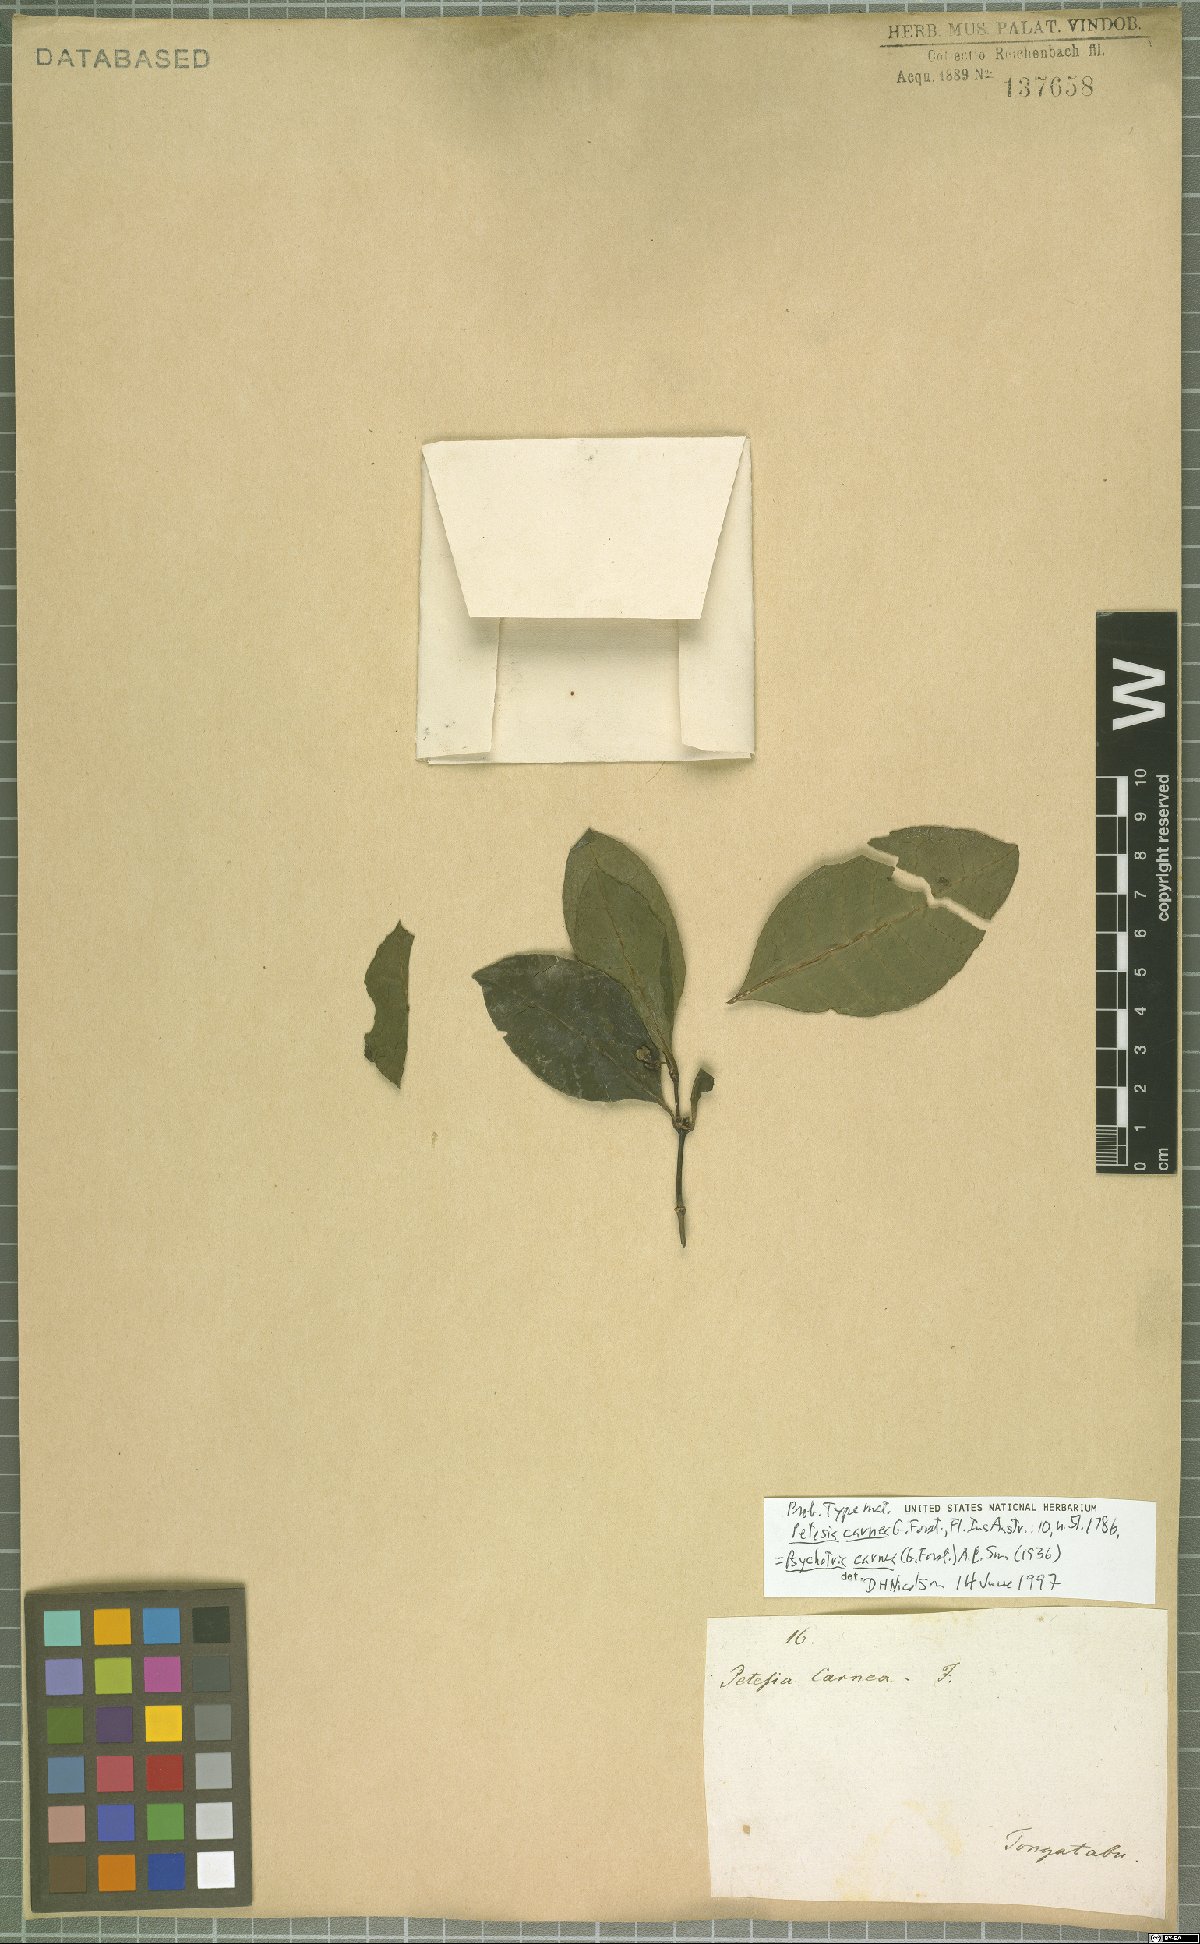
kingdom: Plantae
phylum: Tracheophyta
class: Magnoliopsida
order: Gentianales
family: Rubiaceae
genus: Eumachia
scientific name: Eumachia carnea
